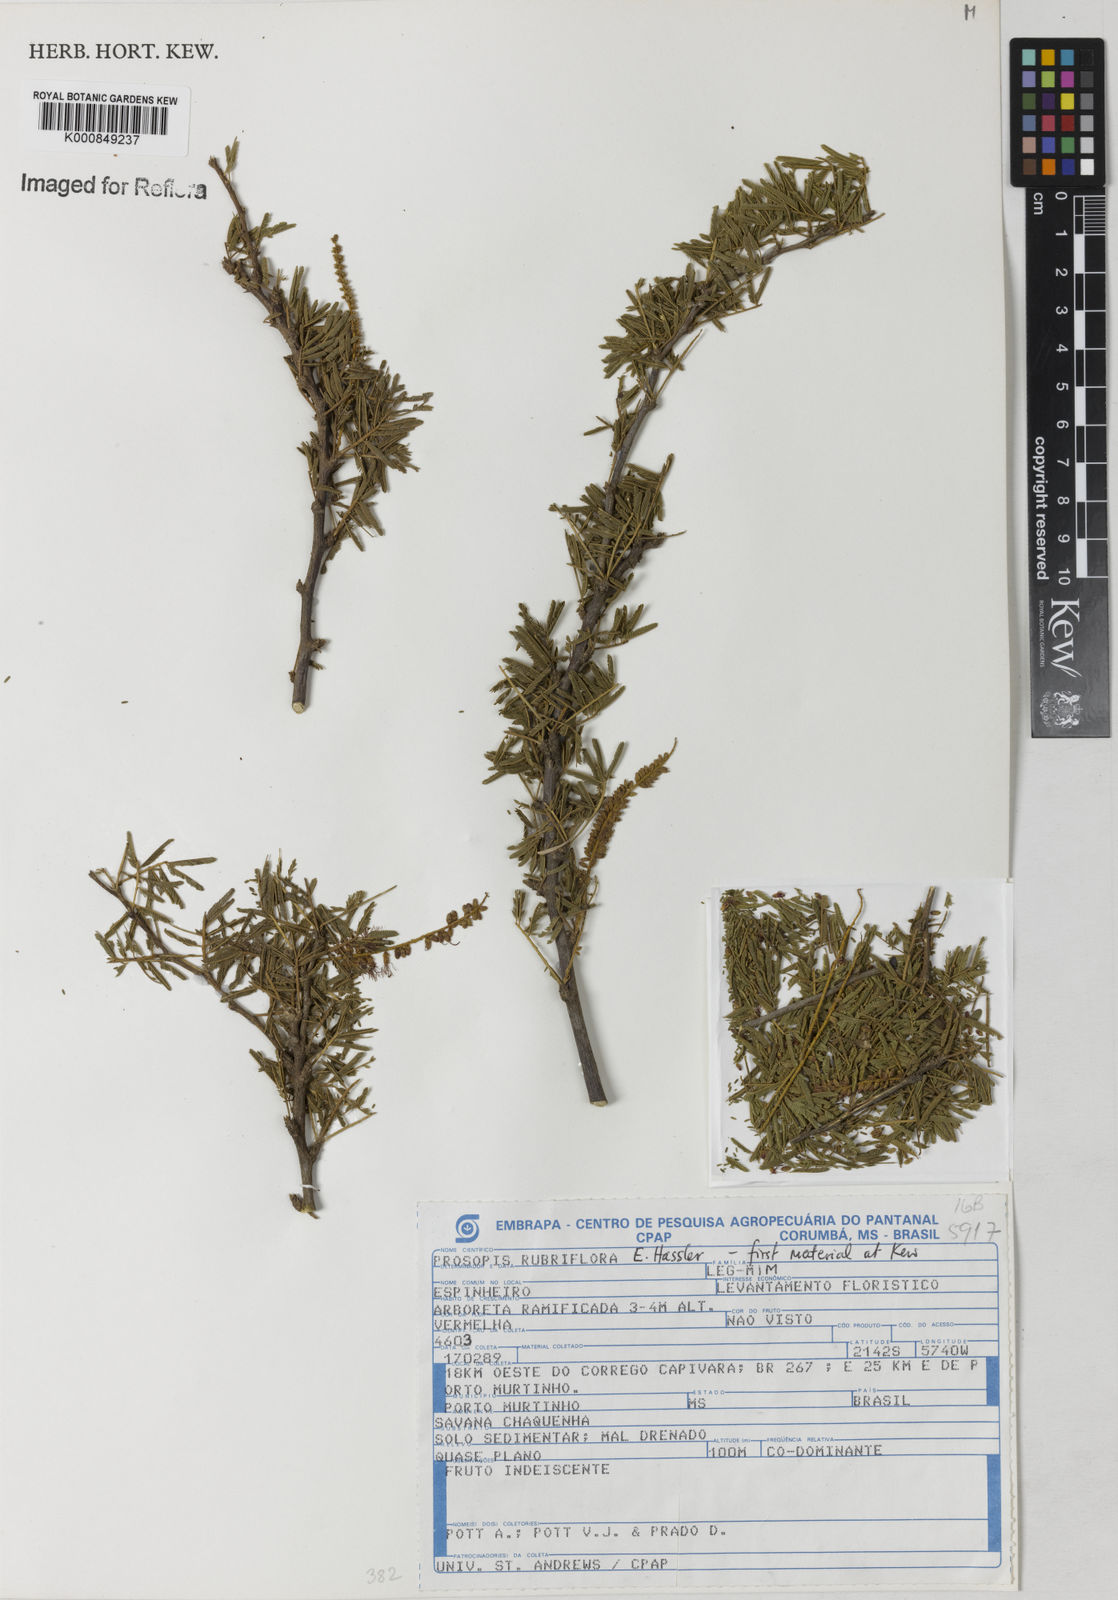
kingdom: Plantae
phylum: Tracheophyta
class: Magnoliopsida
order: Fabales
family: Fabaceae
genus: Prosopis
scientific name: Prosopis rubriflora
